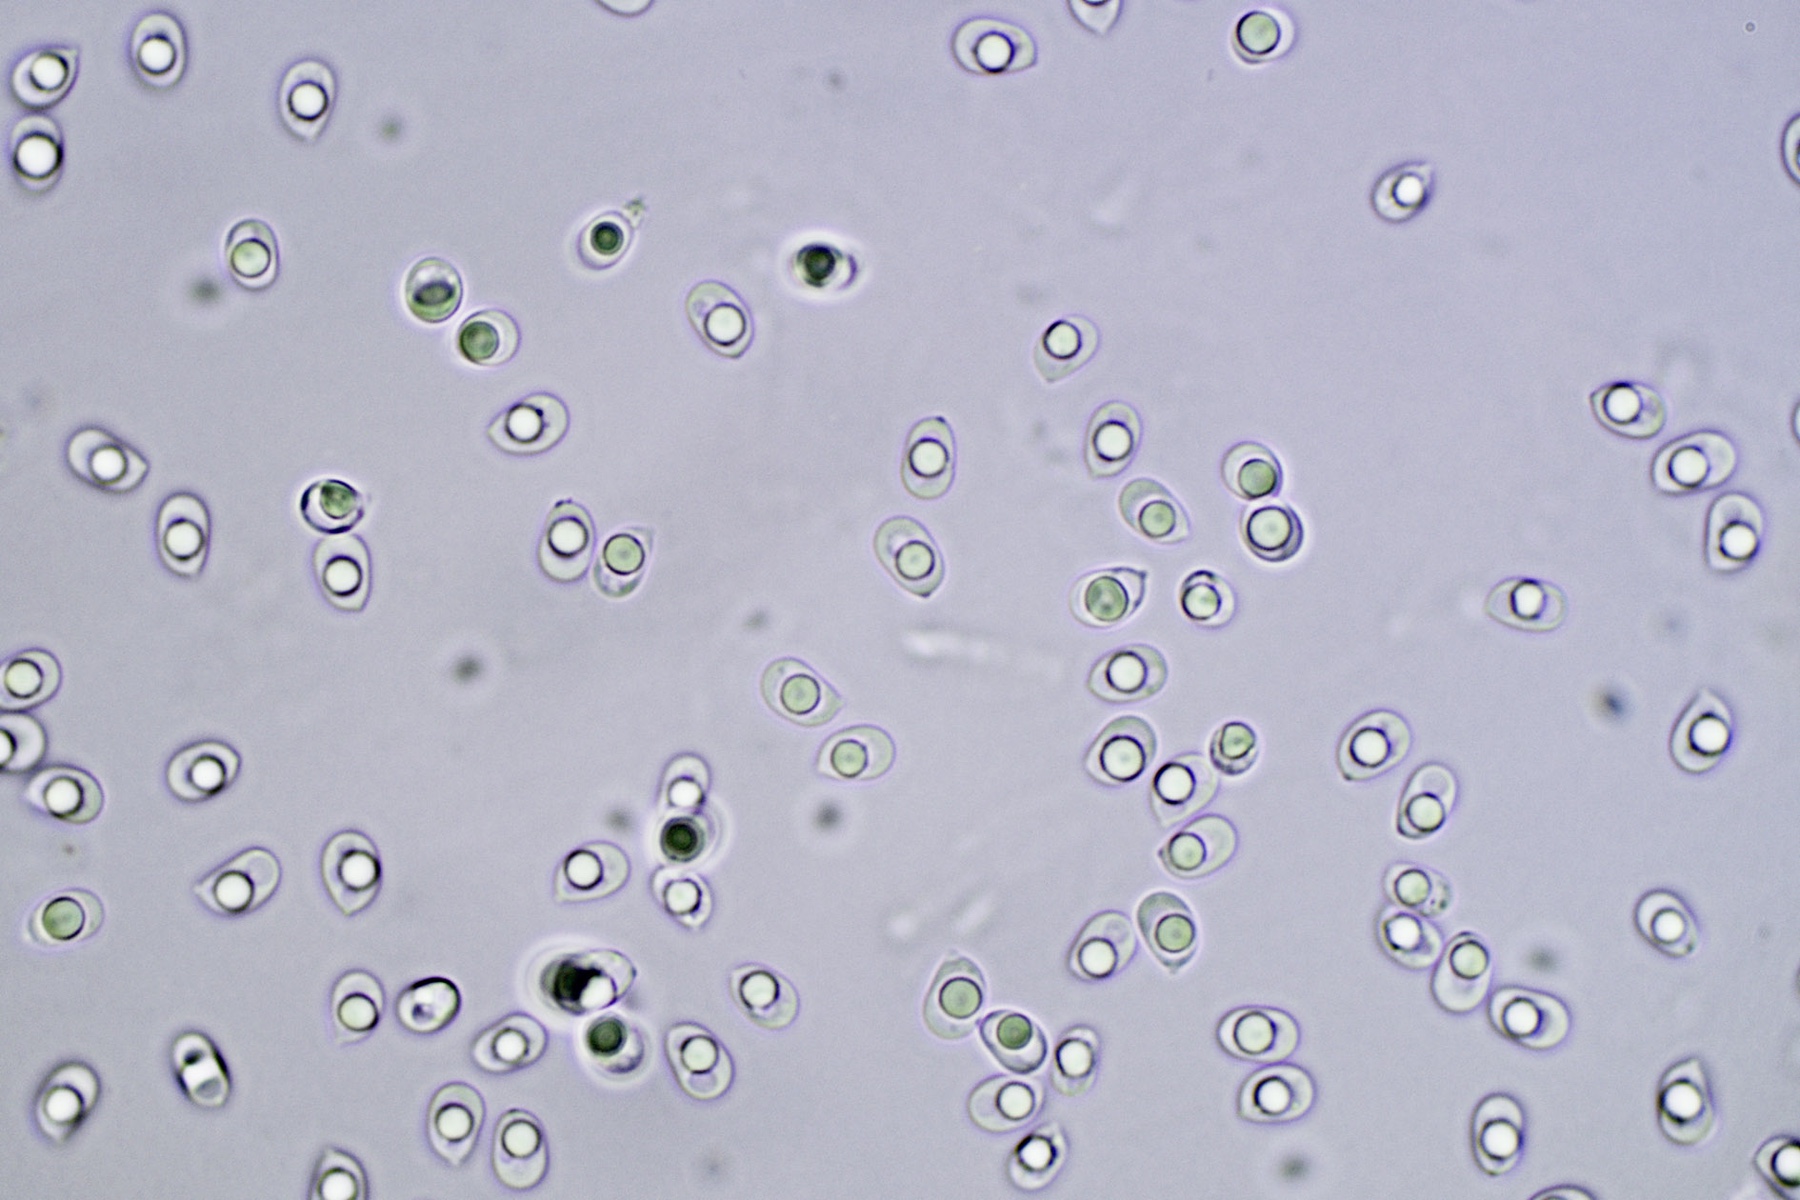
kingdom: Fungi
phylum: Basidiomycota
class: Agaricomycetes
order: Corticiales
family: Corticiaceae
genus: Lyomyces
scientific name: Lyomyces sambuci
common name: almindelig hyldehinde
